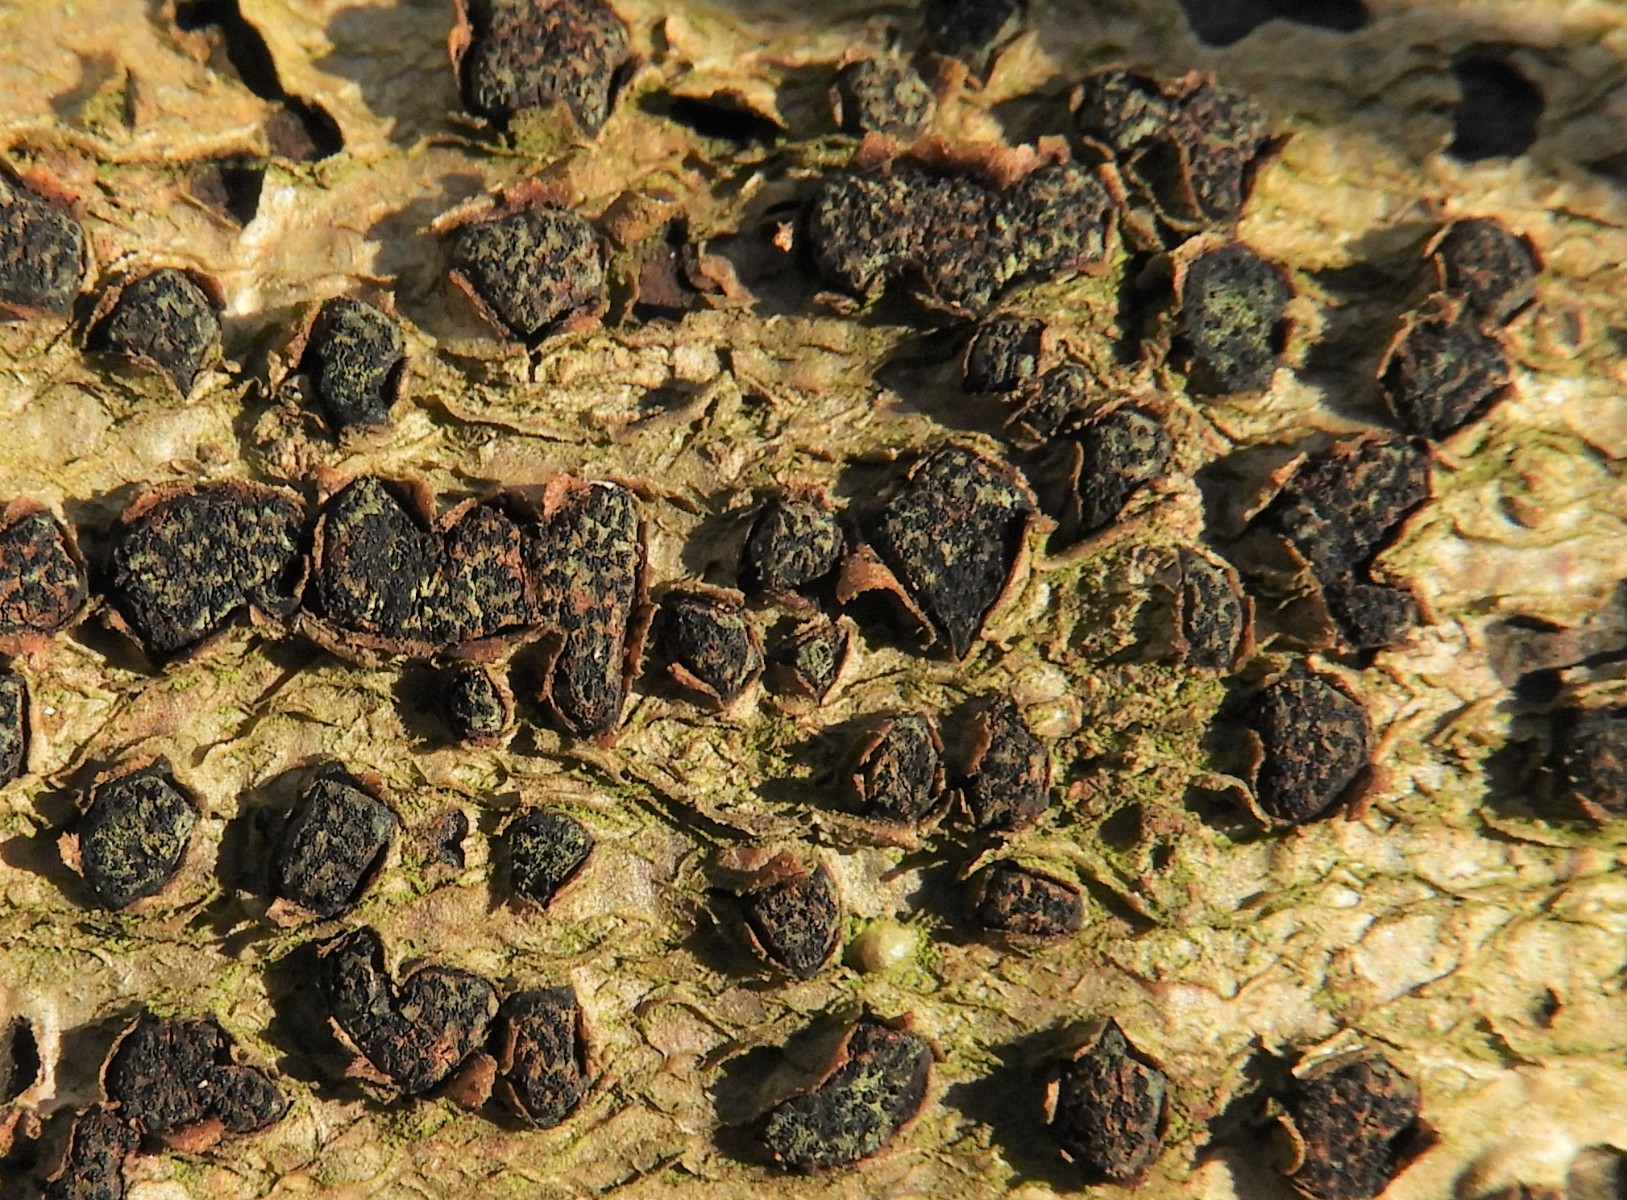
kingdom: Fungi
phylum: Ascomycota
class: Sordariomycetes
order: Xylariales
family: Diatrypaceae
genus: Diatrypella
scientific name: Diatrypella quercina
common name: ege-kulskorpe
